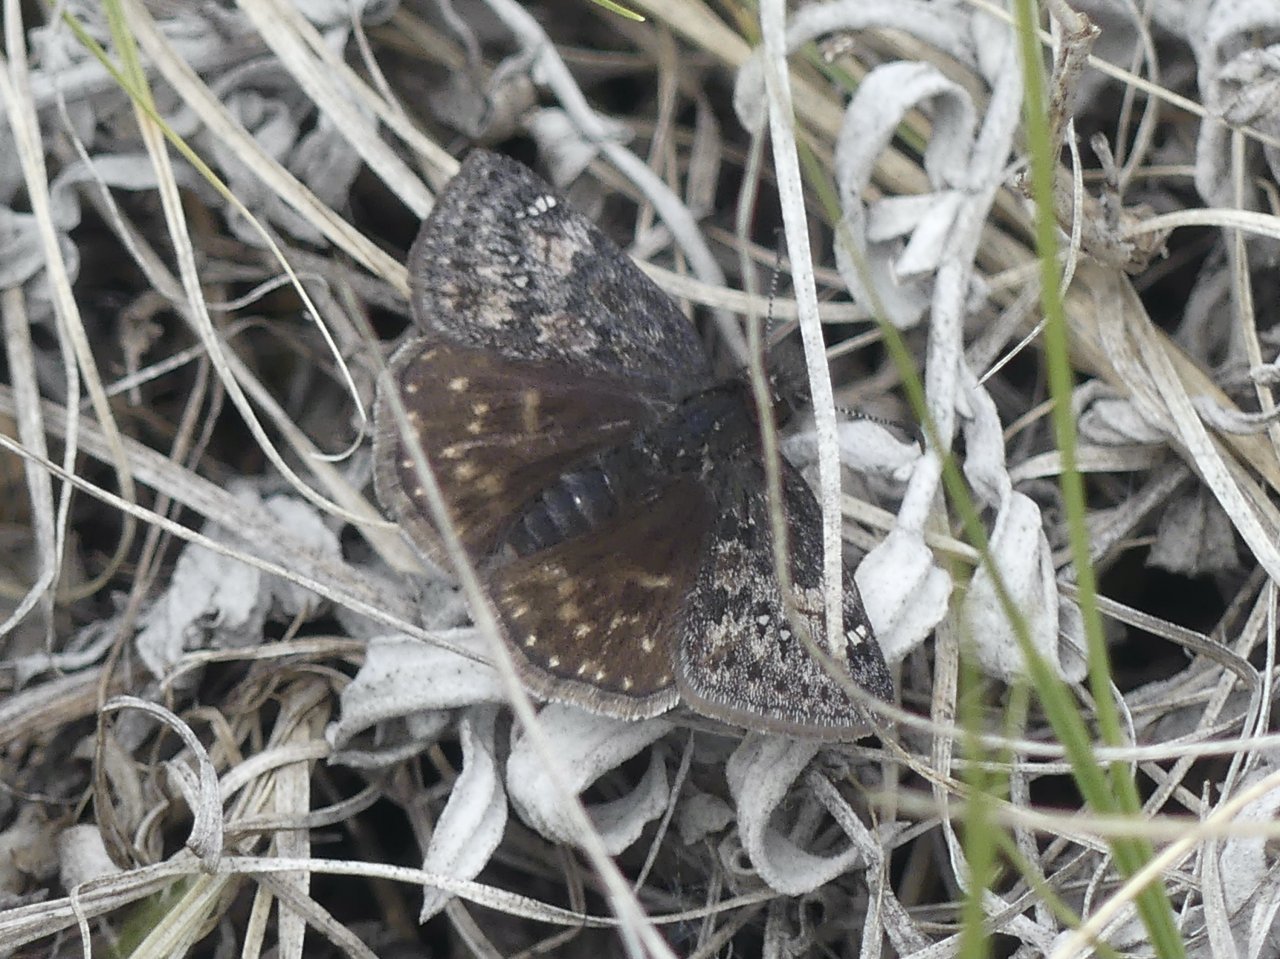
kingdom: Animalia
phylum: Arthropoda
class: Insecta
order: Lepidoptera
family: Hesperiidae
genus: Gesta
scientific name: Gesta
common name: Persius Duskywing
